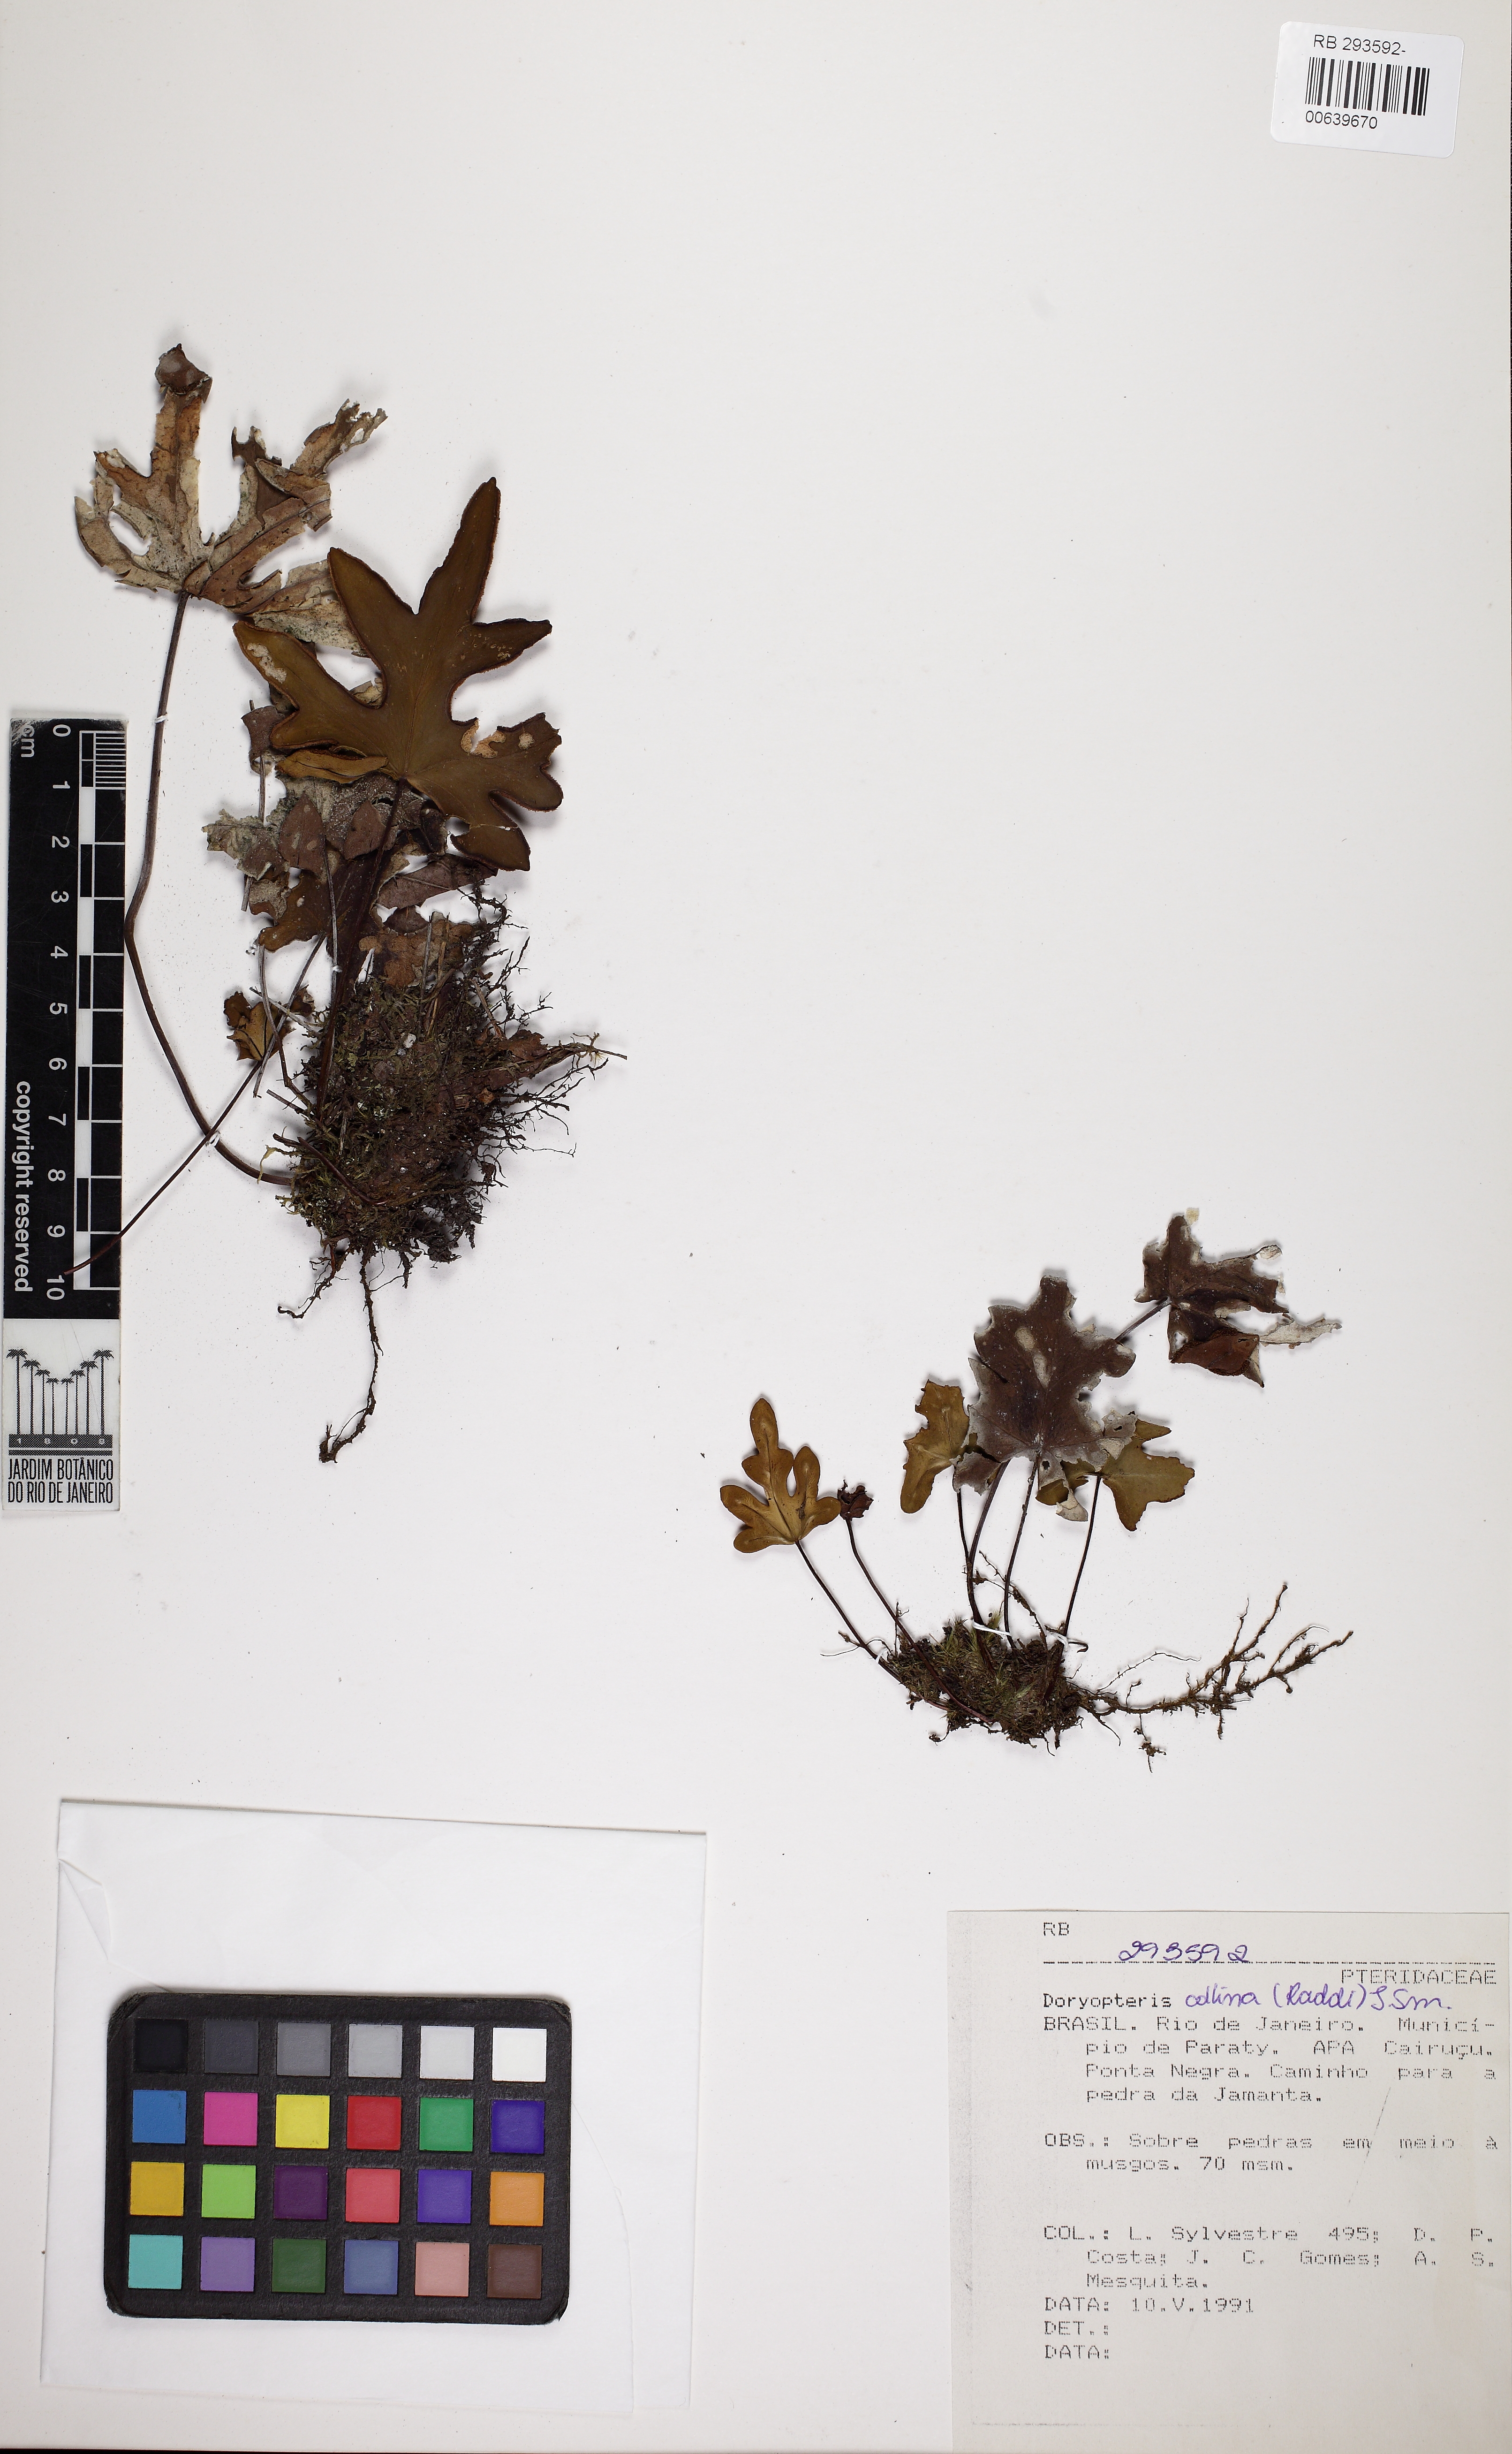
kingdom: Plantae
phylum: Tracheophyta
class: Polypodiopsida
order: Polypodiales
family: Pteridaceae
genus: Doryopteris
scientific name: Doryopteris collina
